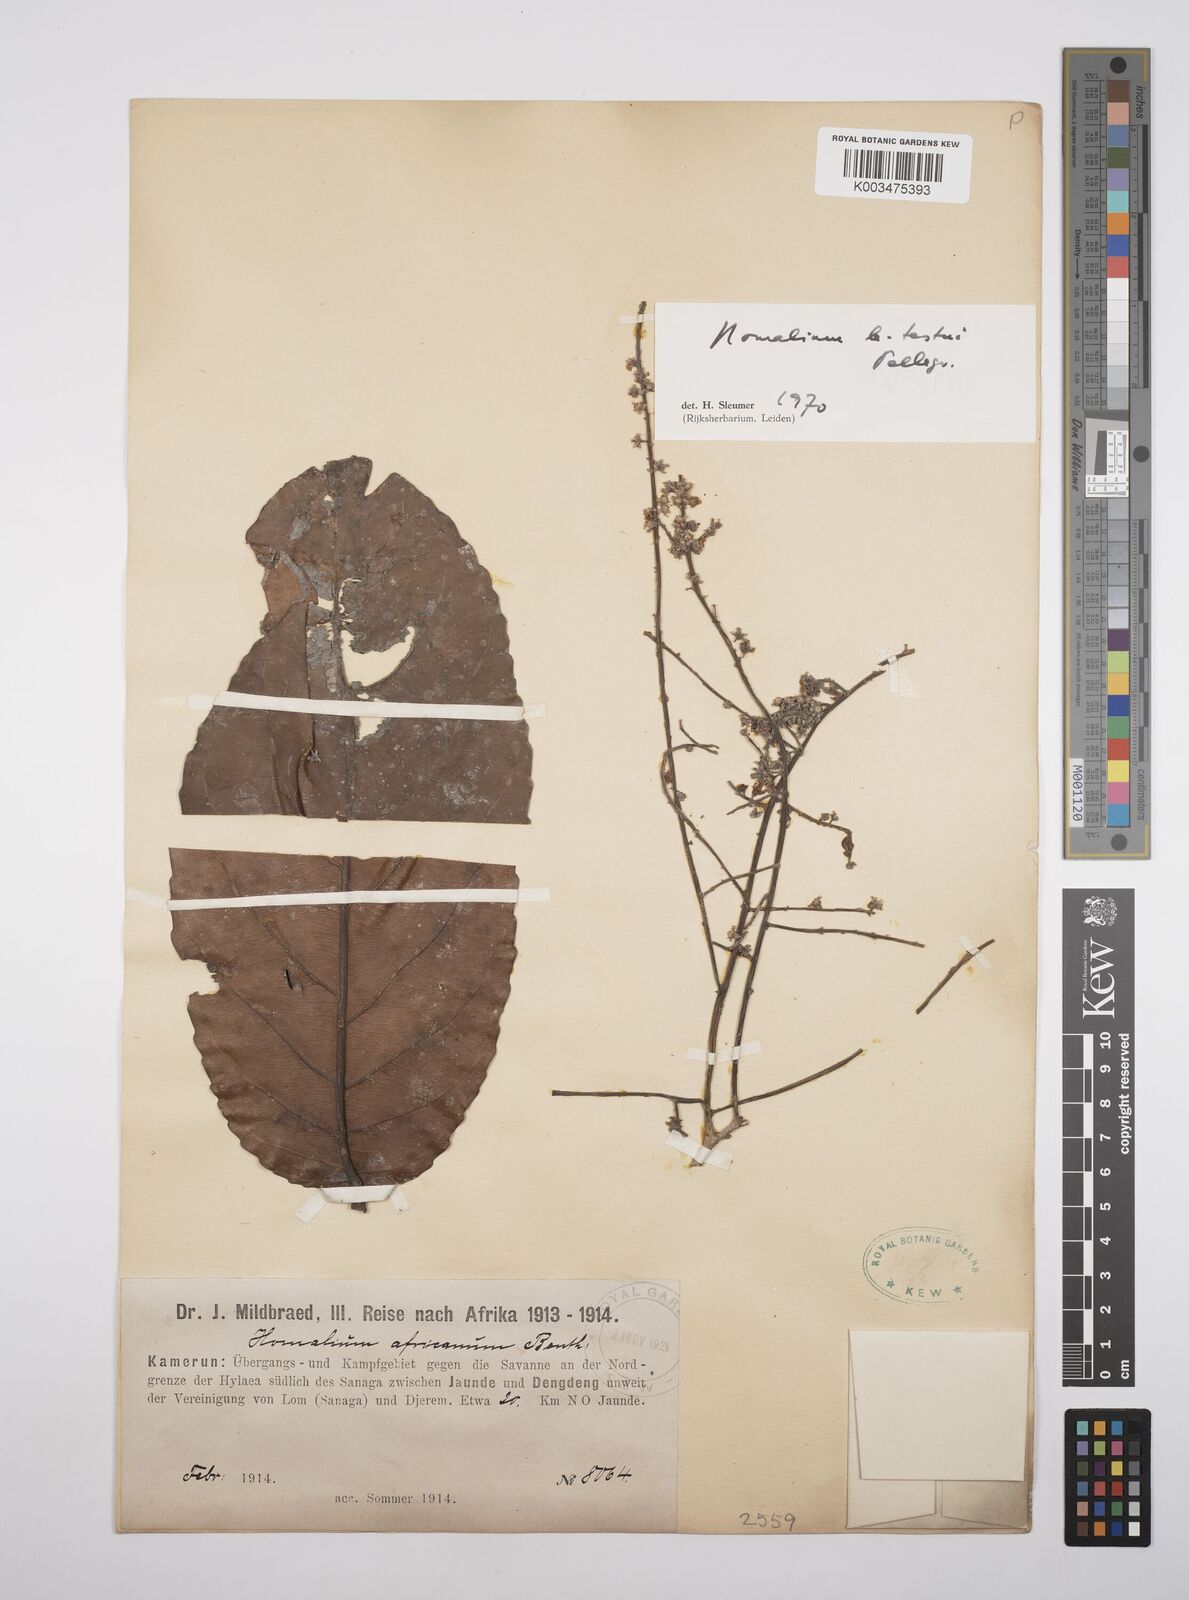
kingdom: Plantae
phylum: Tracheophyta
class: Magnoliopsida
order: Malpighiales
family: Salicaceae
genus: Homalium
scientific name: Homalium letestui
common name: African homalium
